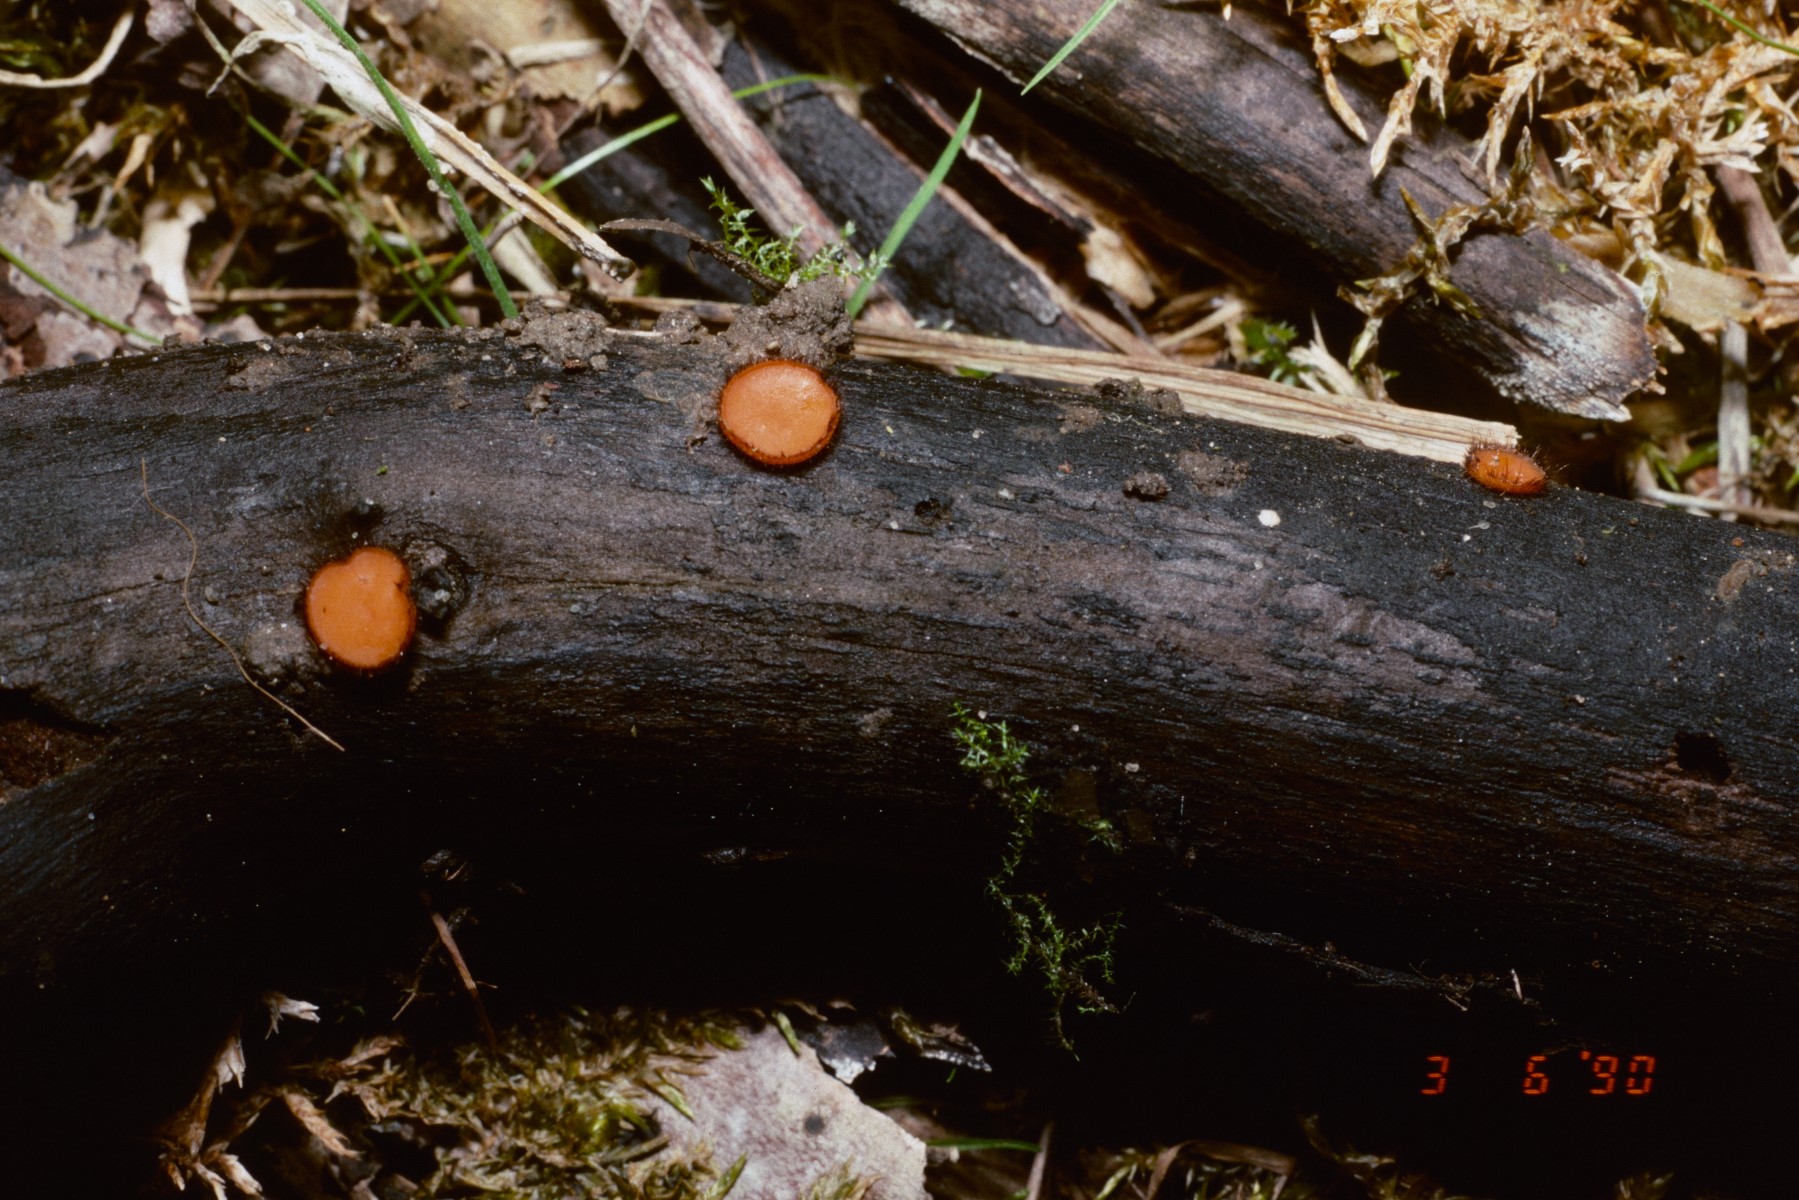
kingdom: Fungi
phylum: Ascomycota
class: Pezizomycetes
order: Pezizales
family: Pyronemataceae
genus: Scutellinia
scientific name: Scutellinia scutellata
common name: frynset skjoldbæger
